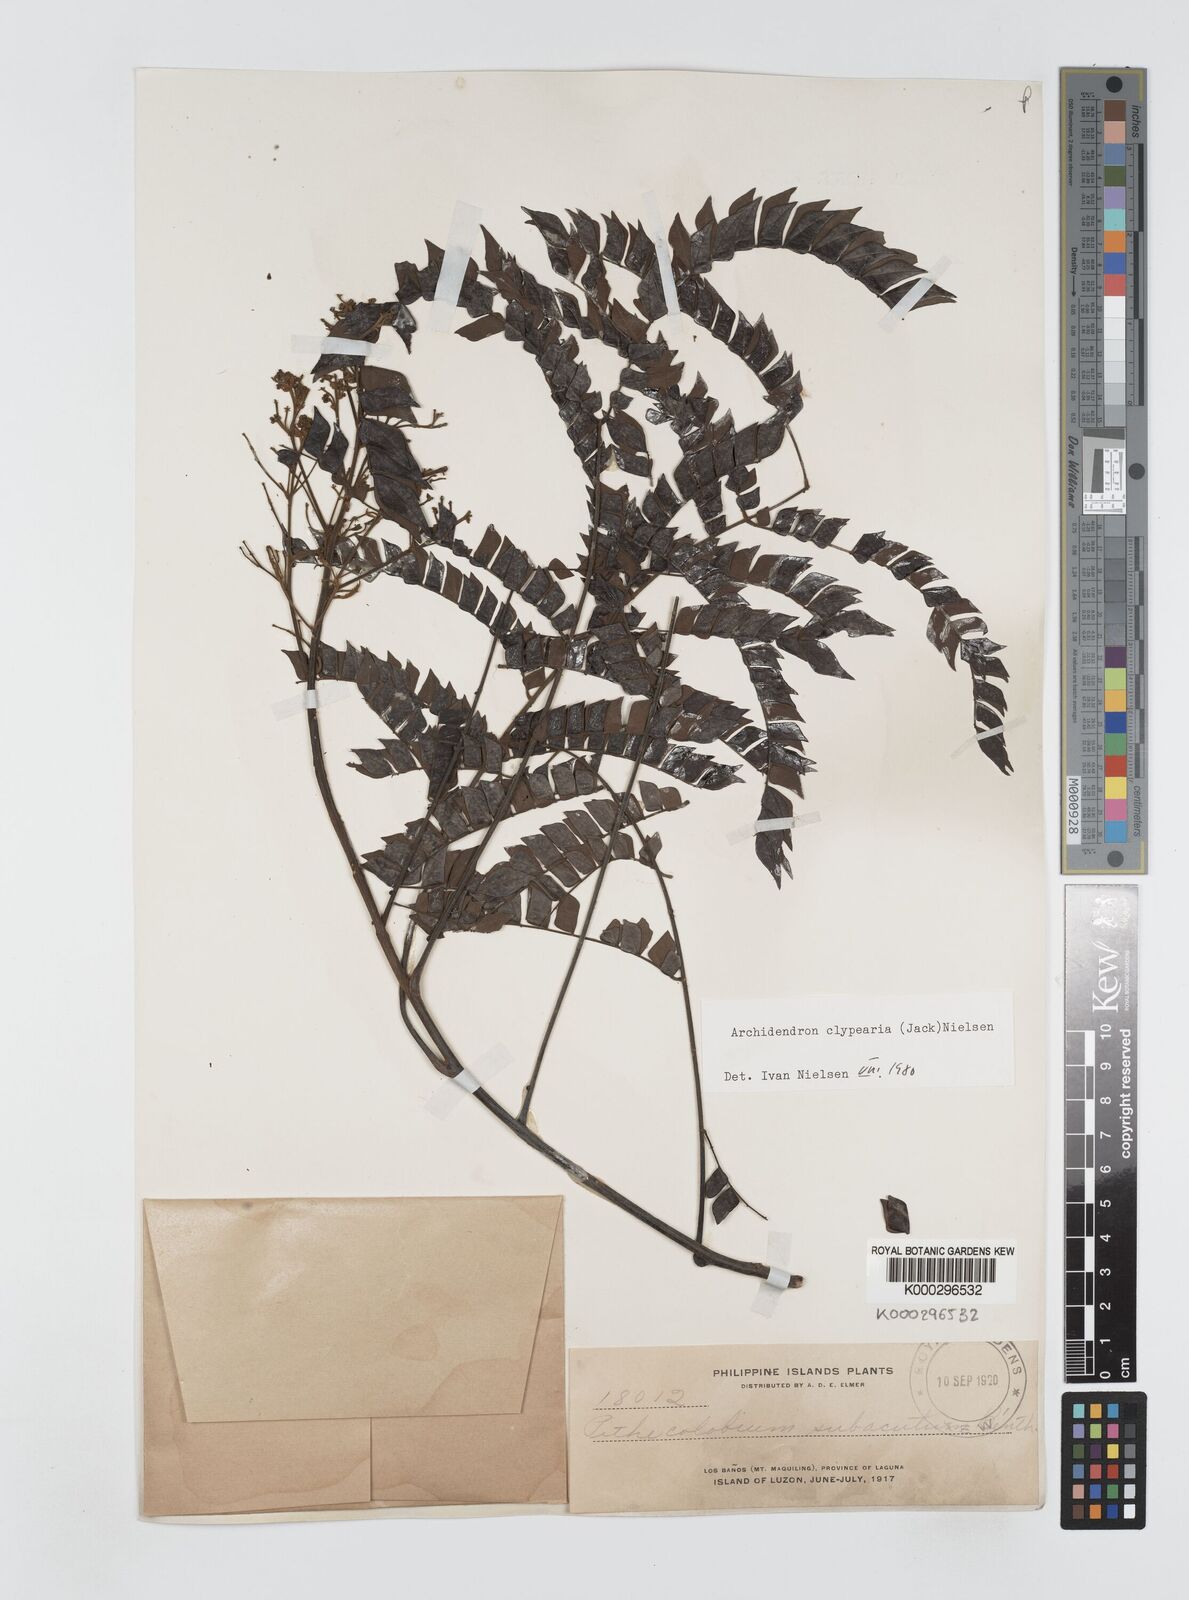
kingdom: Plantae
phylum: Tracheophyta
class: Magnoliopsida
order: Fabales
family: Fabaceae
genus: Archidendron
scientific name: Archidendron clypearia
